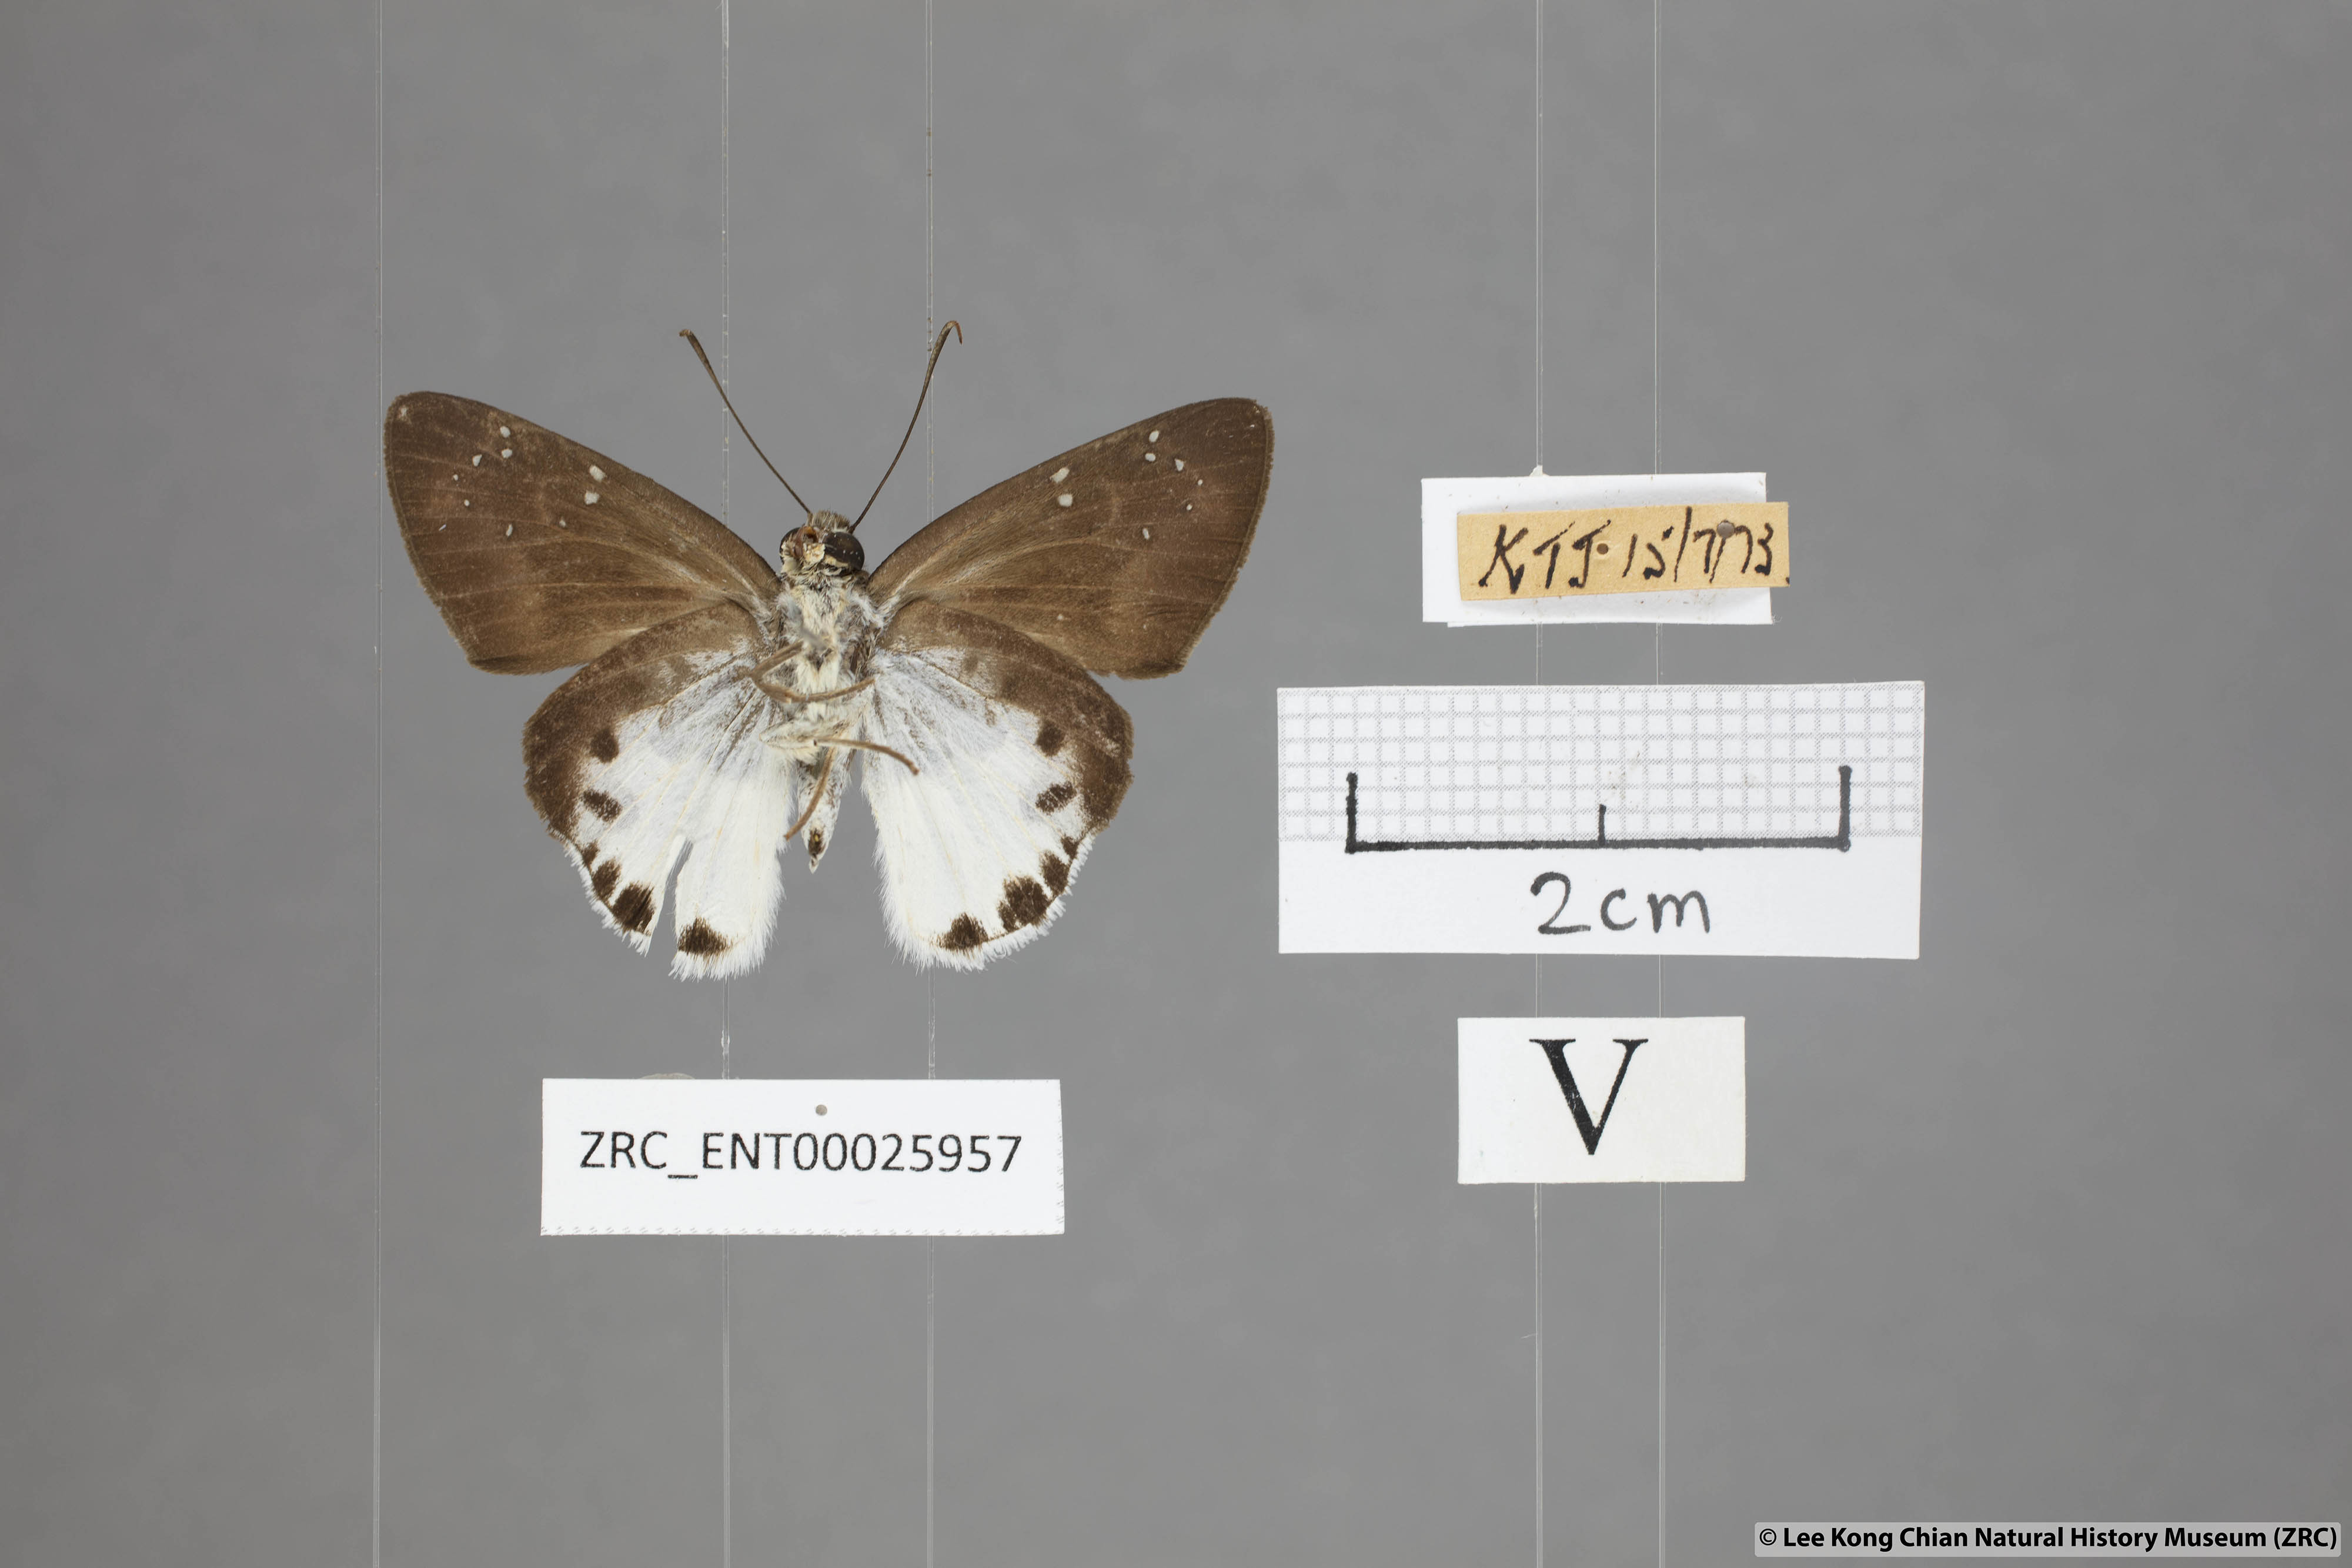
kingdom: Animalia
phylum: Arthropoda
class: Insecta
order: Lepidoptera
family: Hesperiidae
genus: Tagiades
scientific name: Tagiades calligana
